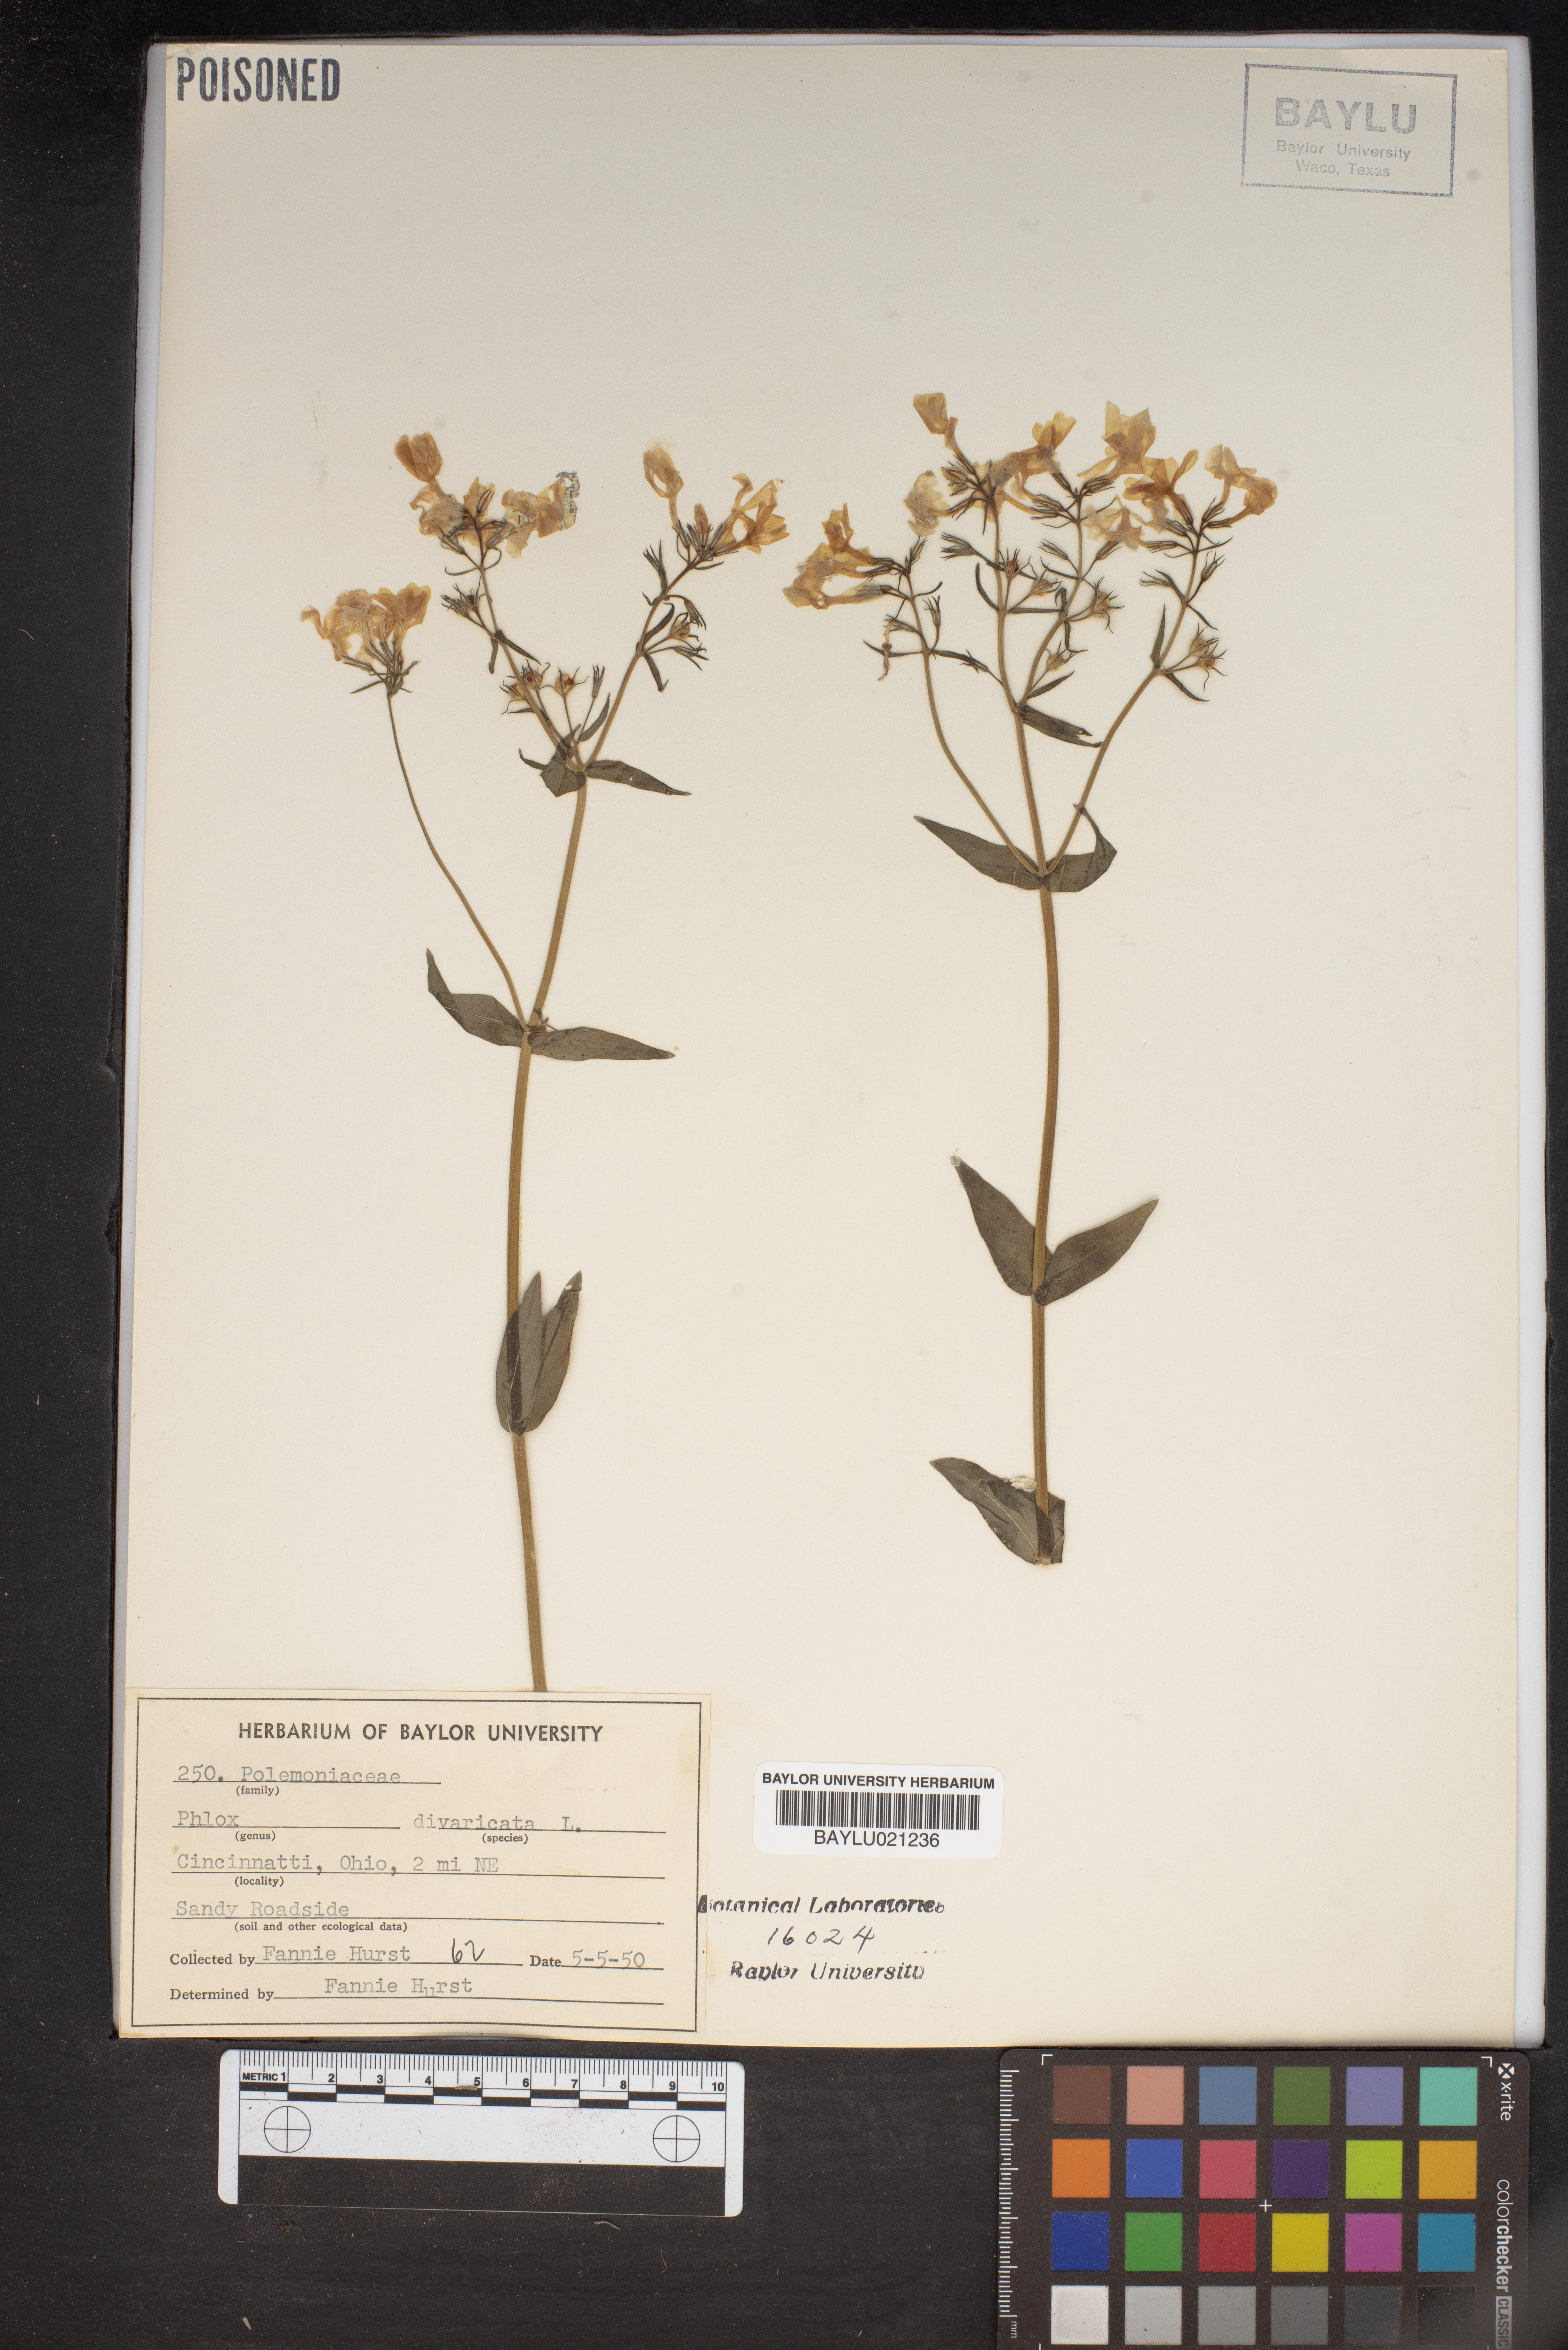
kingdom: Plantae
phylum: Tracheophyta
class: Magnoliopsida
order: Ericales
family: Polemoniaceae
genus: Phlox
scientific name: Phlox divaricata
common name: Blue phlox
